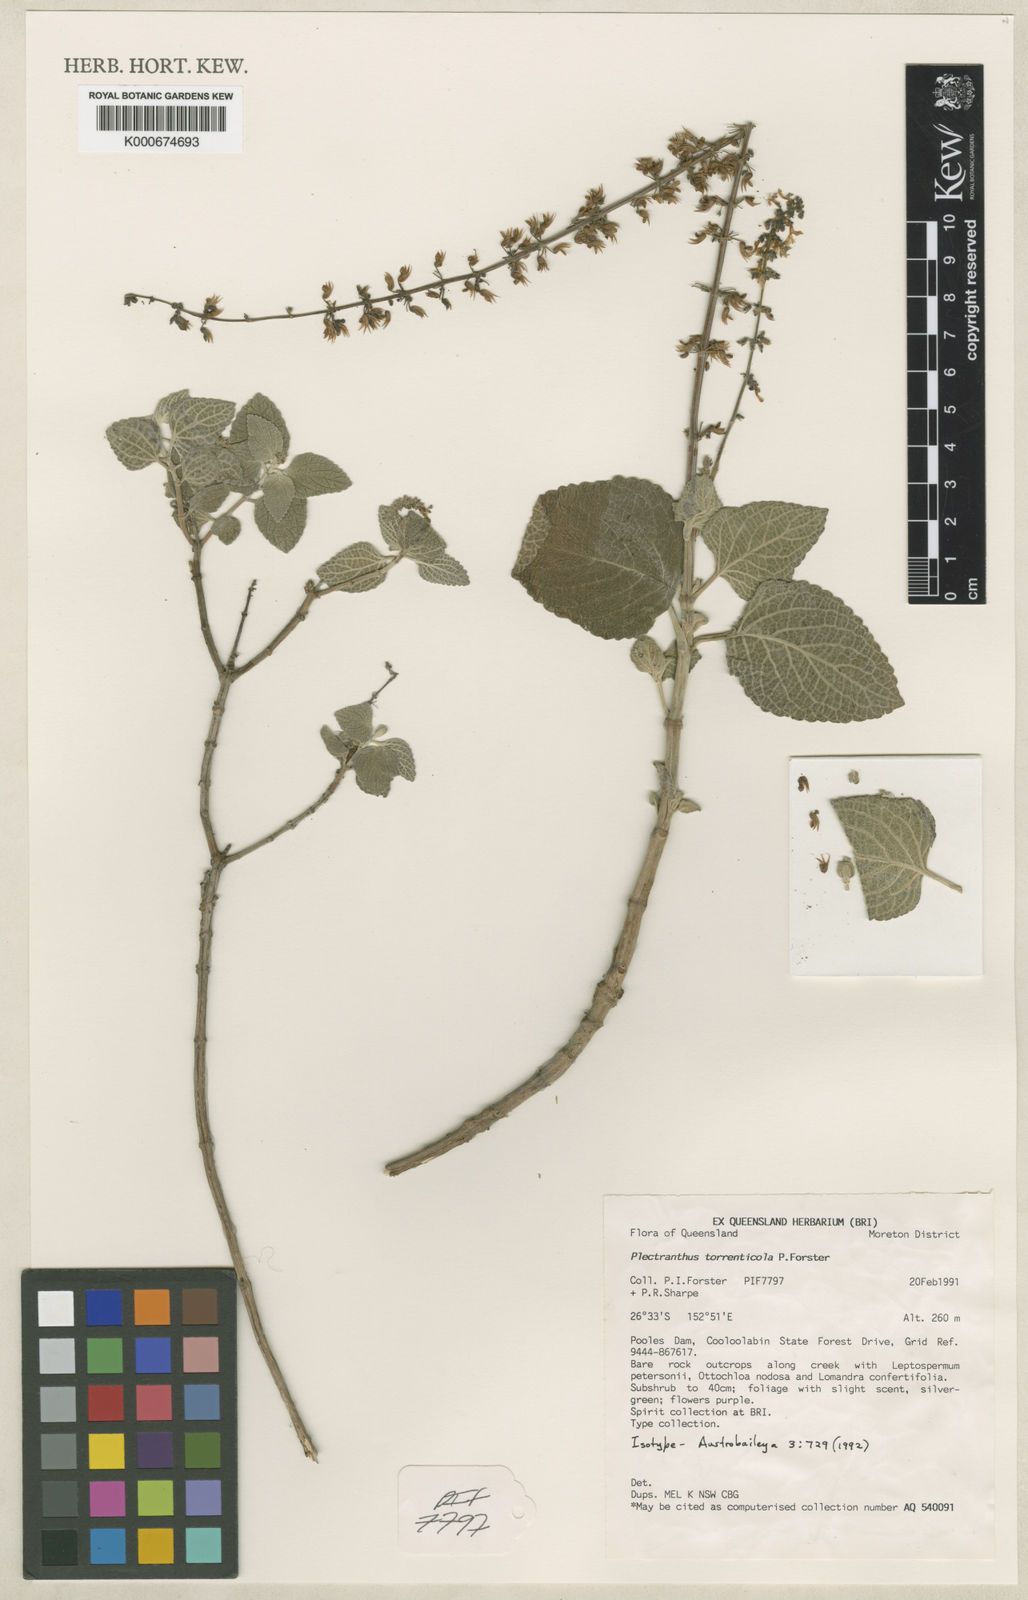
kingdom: Plantae
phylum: Tracheophyta
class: Magnoliopsida
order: Lamiales
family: Lamiaceae
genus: Coleus
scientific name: Coleus torrenticola
